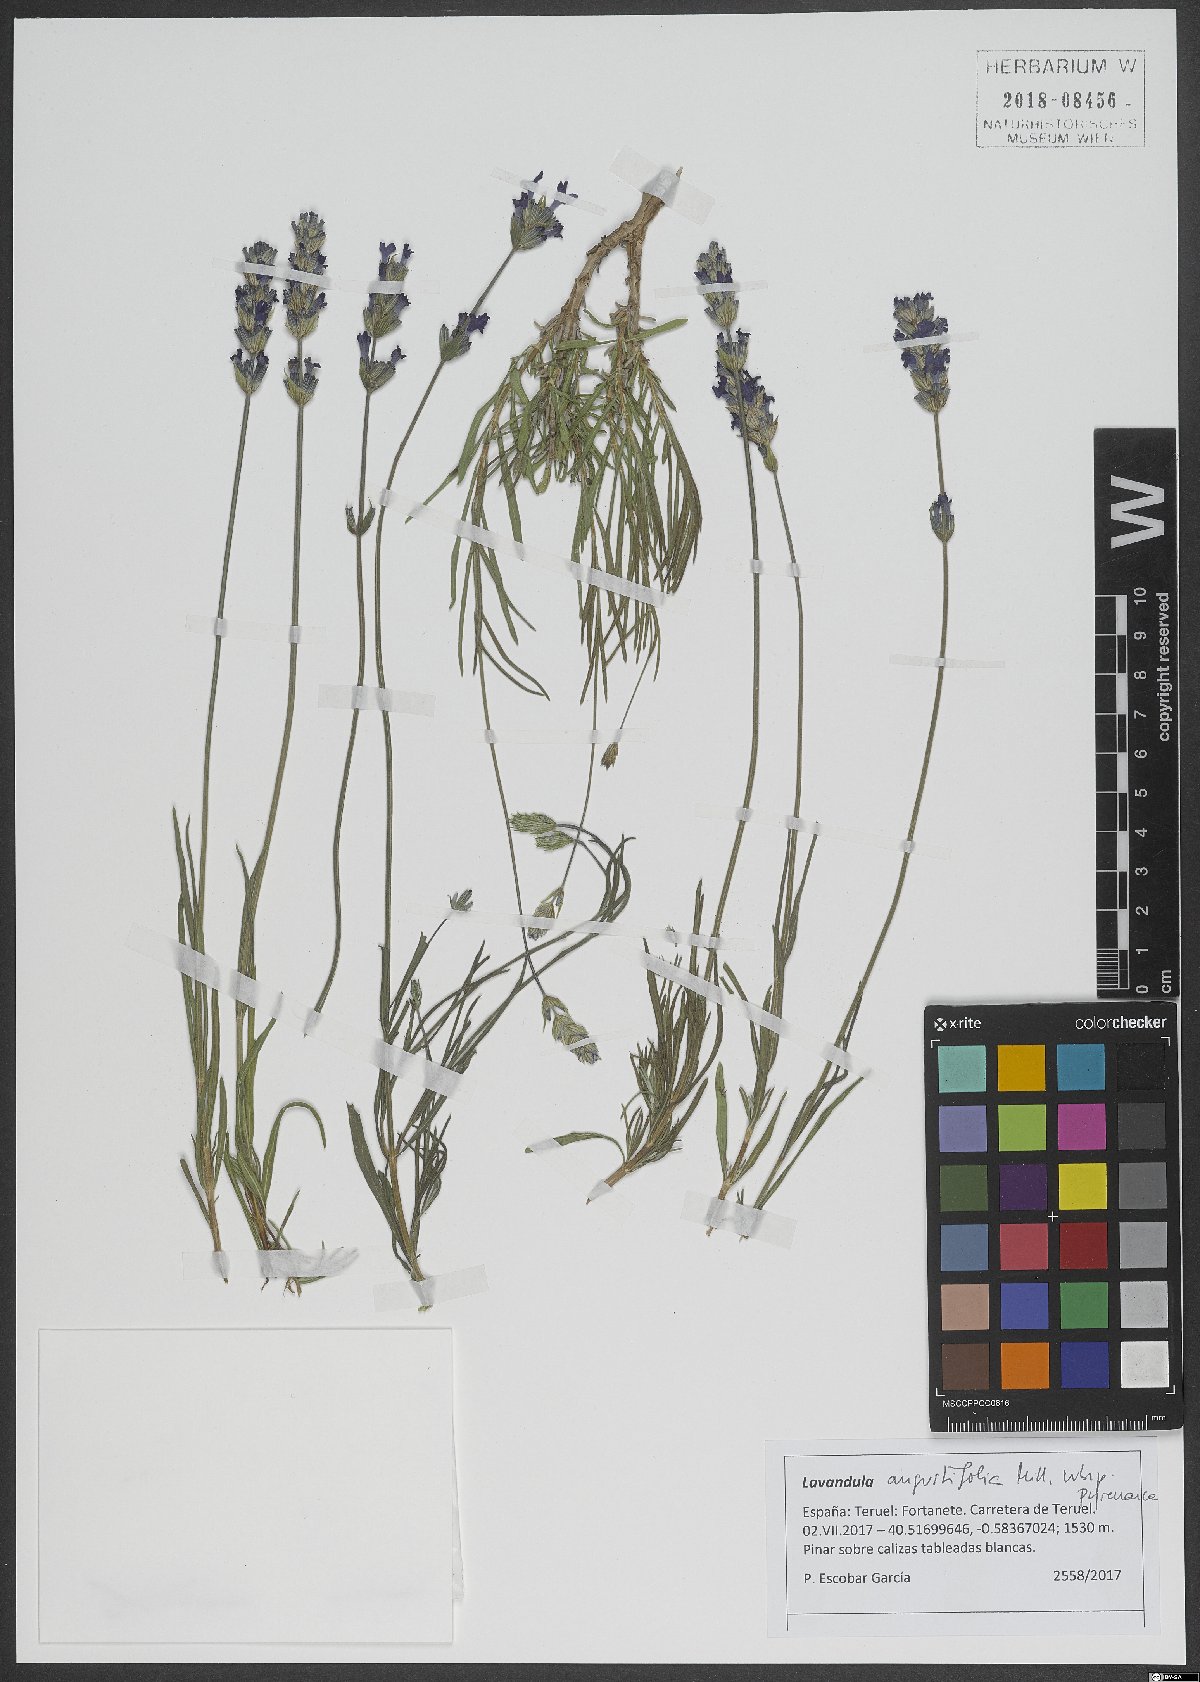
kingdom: Plantae
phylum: Tracheophyta
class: Magnoliopsida
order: Lamiales
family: Lamiaceae
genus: Lavandula
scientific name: Lavandula angustifolia
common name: Garden lavender
